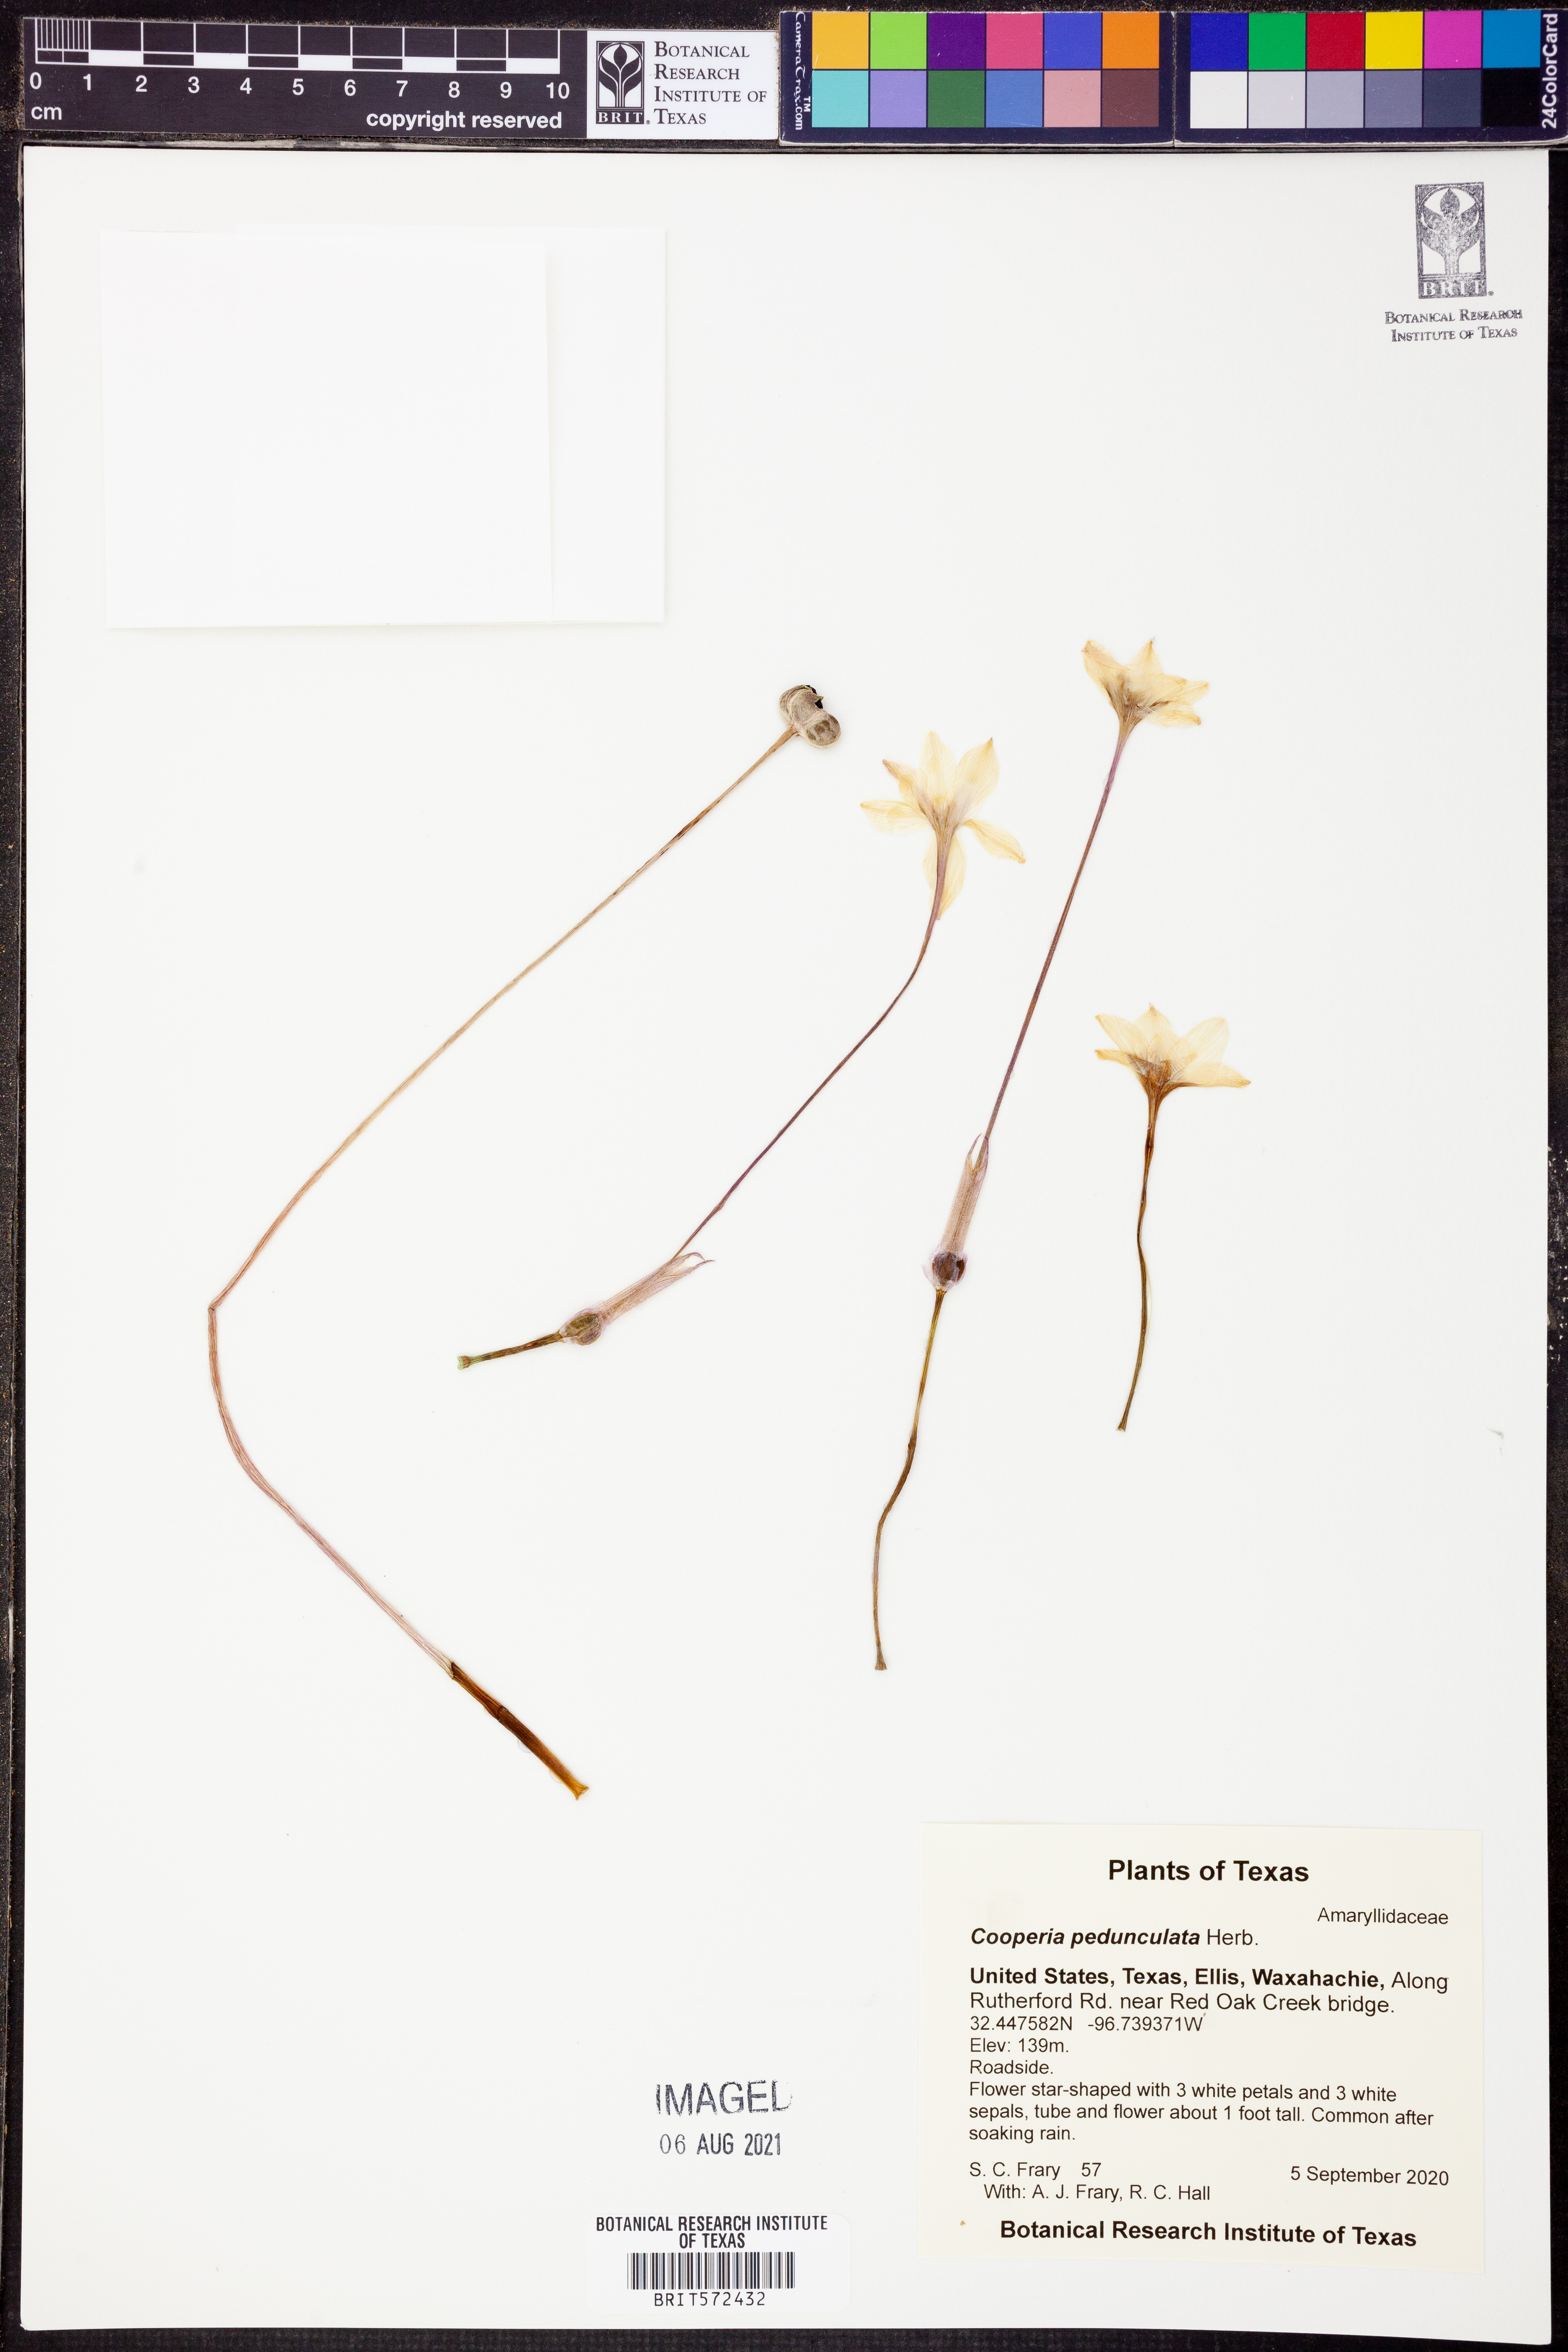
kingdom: Plantae
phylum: Tracheophyta
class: Liliopsida
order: Asparagales
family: Amaryllidaceae
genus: Zephyranthes
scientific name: Zephyranthes drummondii
